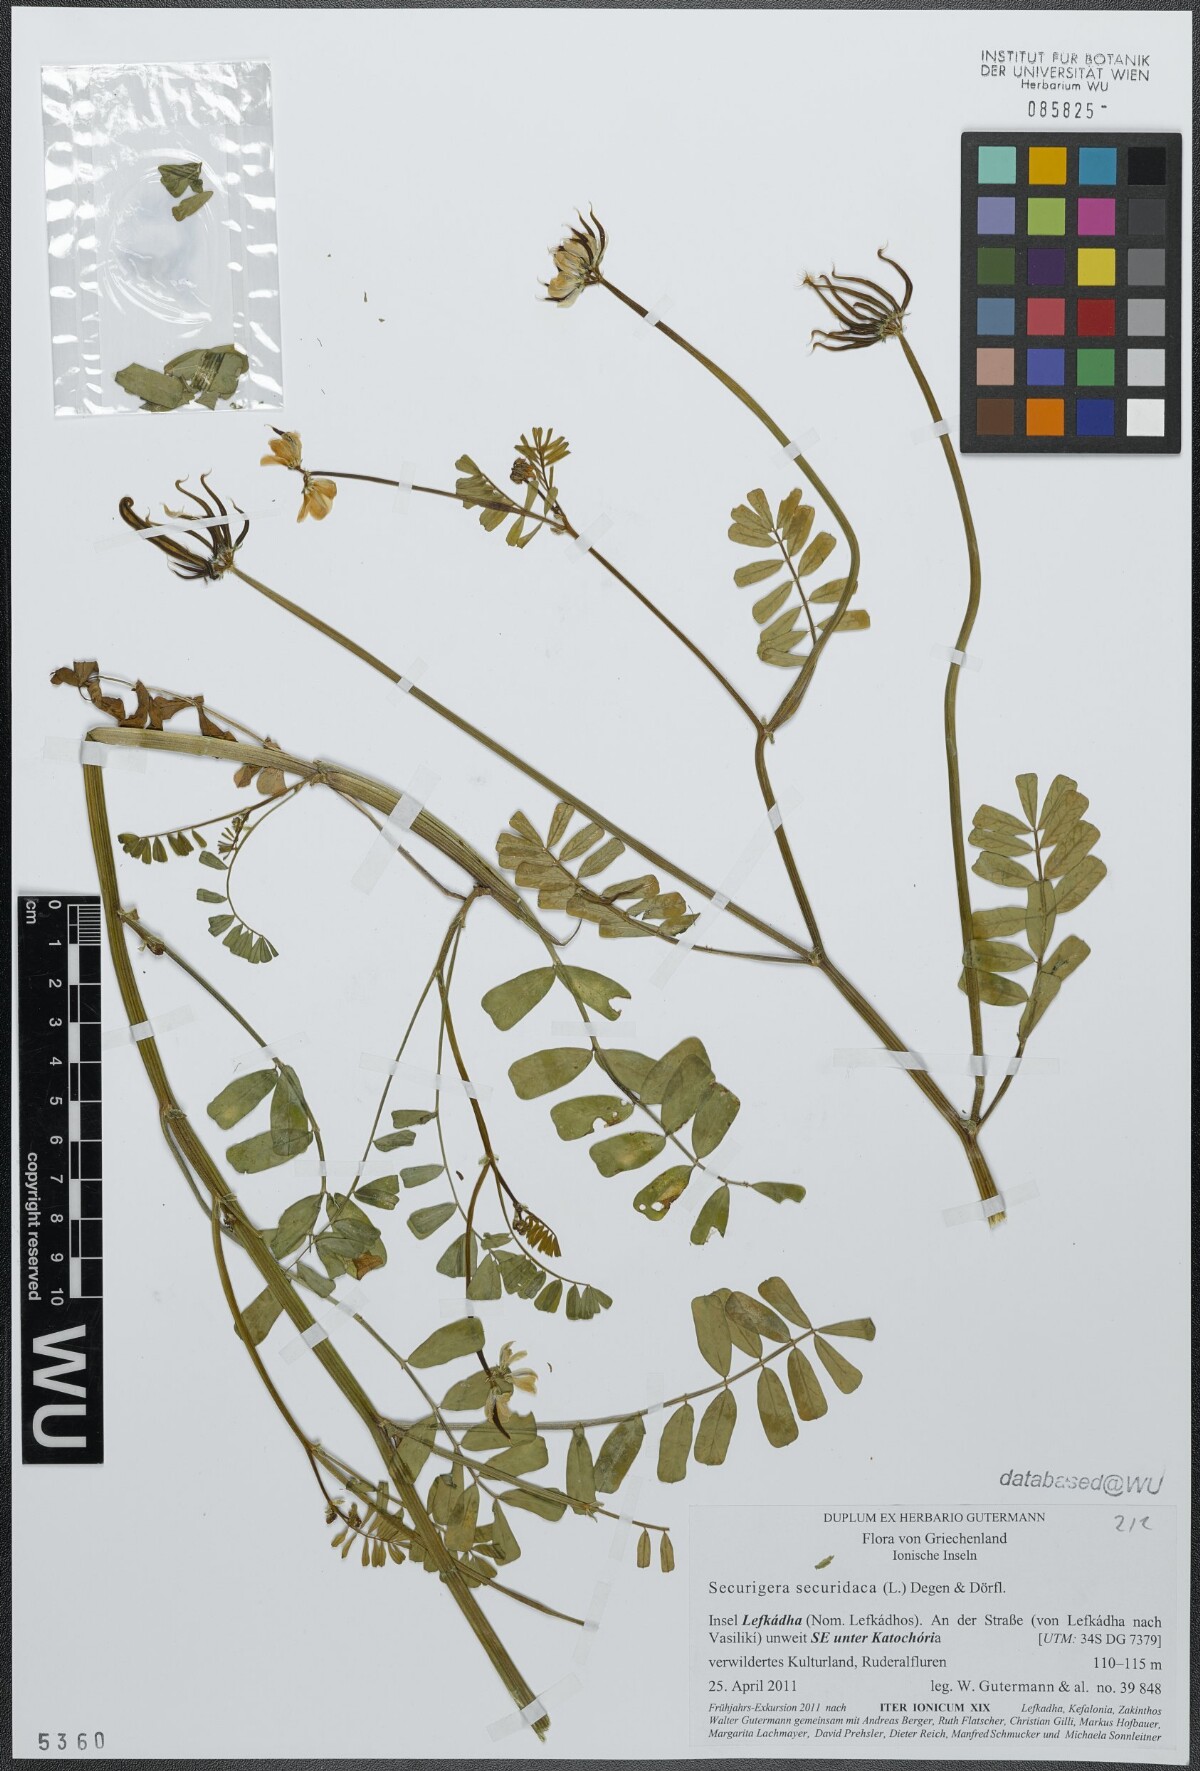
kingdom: Plantae
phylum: Tracheophyta
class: Magnoliopsida
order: Fabales
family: Fabaceae
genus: Coronilla
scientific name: Coronilla securidaca
